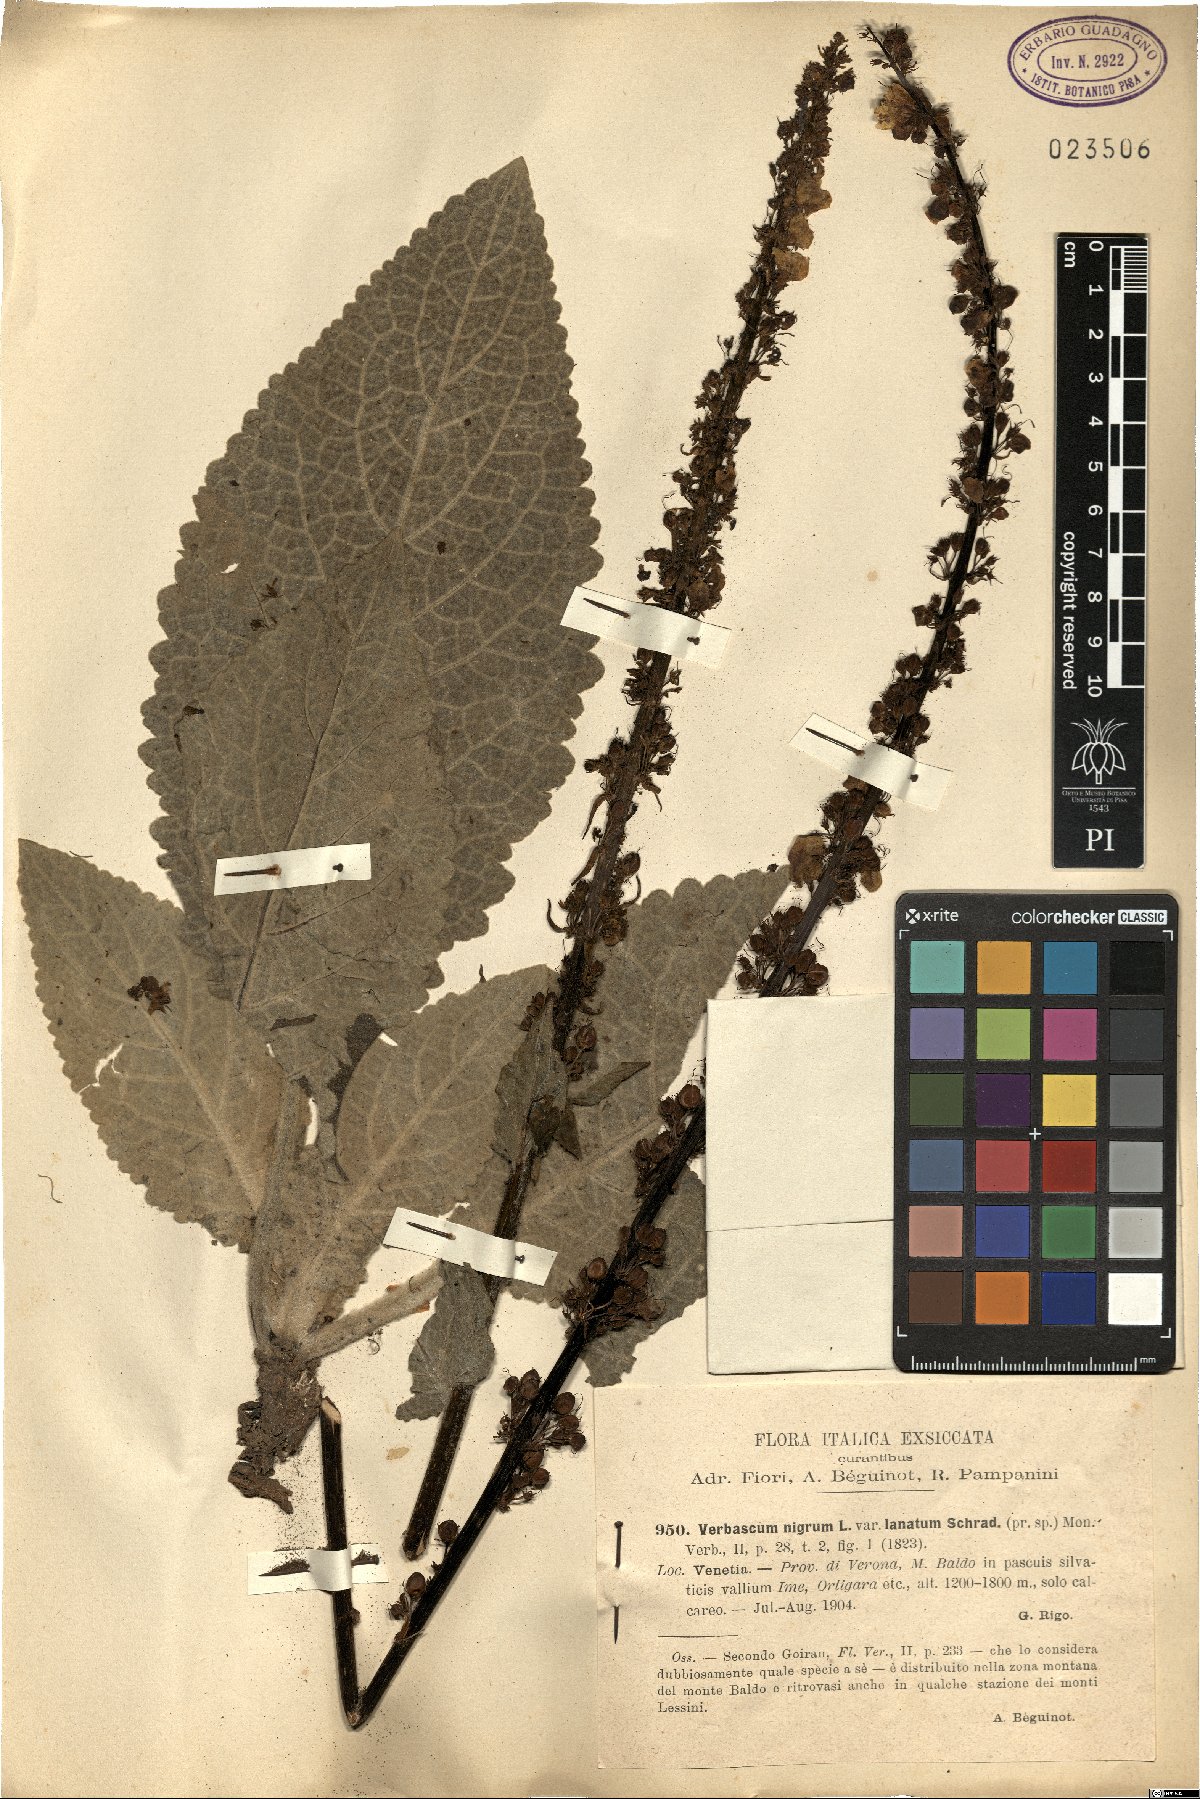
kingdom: Plantae
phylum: Tracheophyta
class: Magnoliopsida
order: Lamiales
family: Scrophulariaceae
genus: Verbascum
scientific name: Verbascum nigrum
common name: Dark mullein
